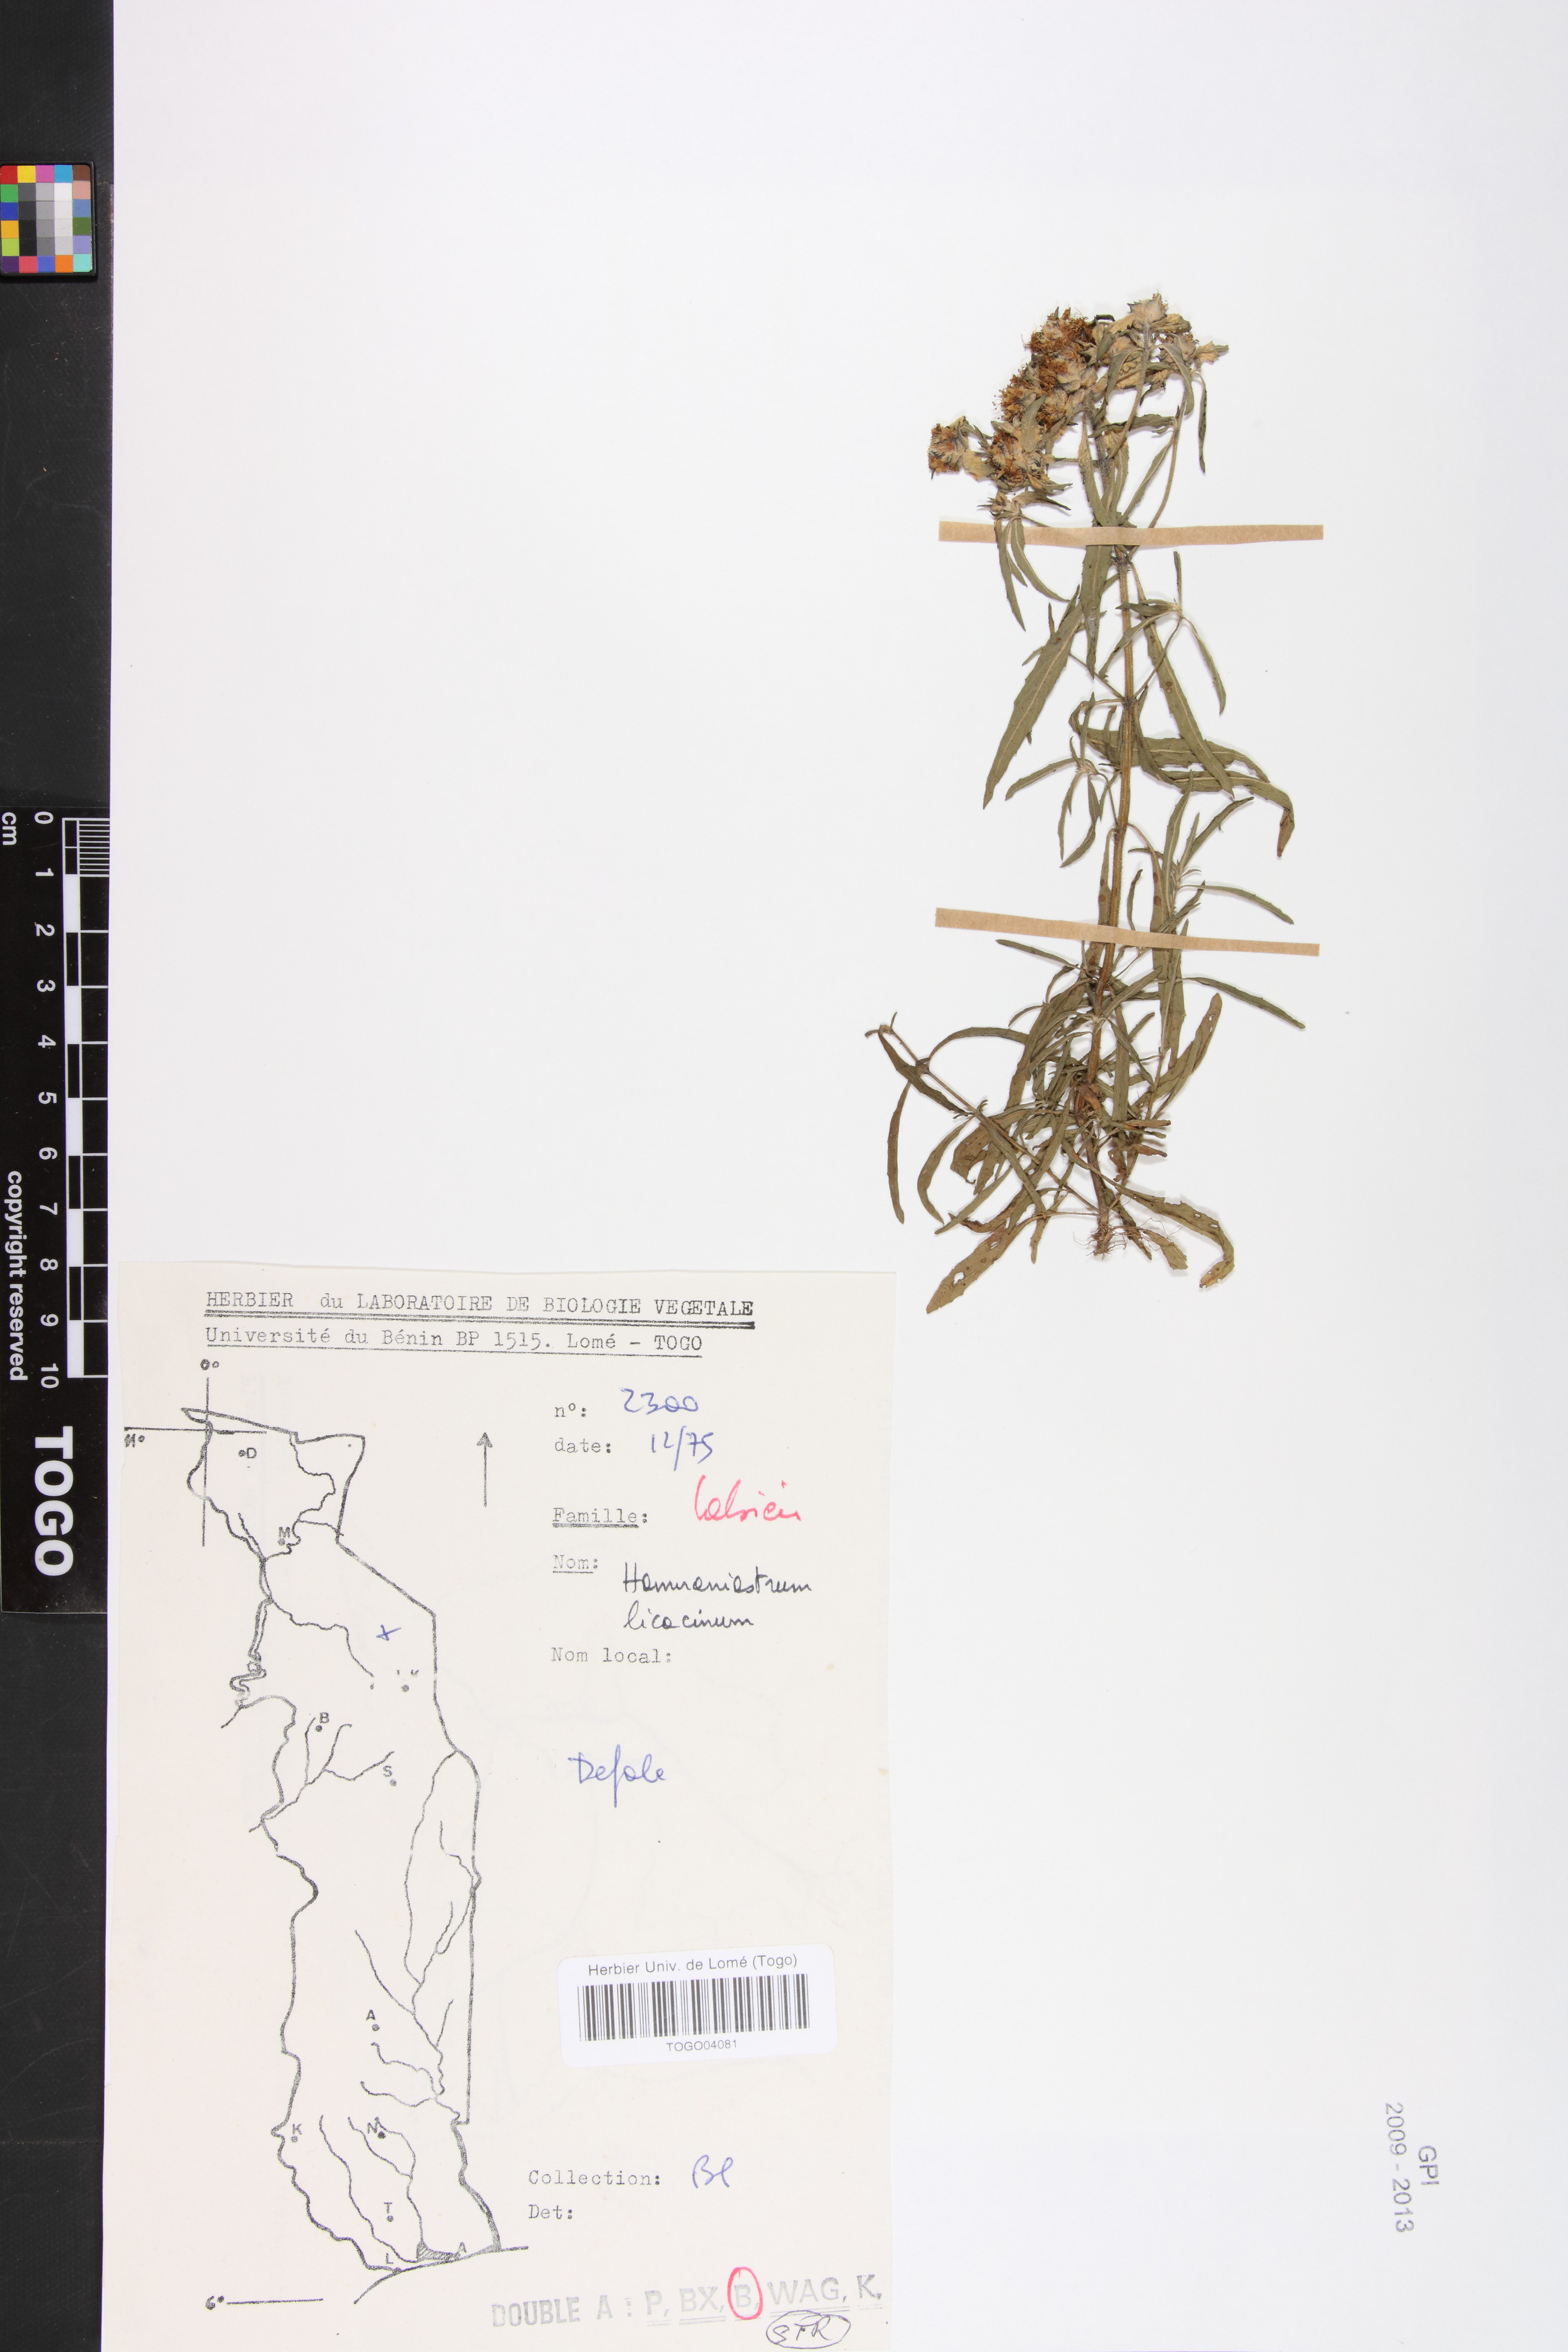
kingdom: Plantae
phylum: Tracheophyta
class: Magnoliopsida
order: Lamiales
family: Lamiaceae
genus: Haumaniastrum
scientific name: Haumaniastrum caeruleum
